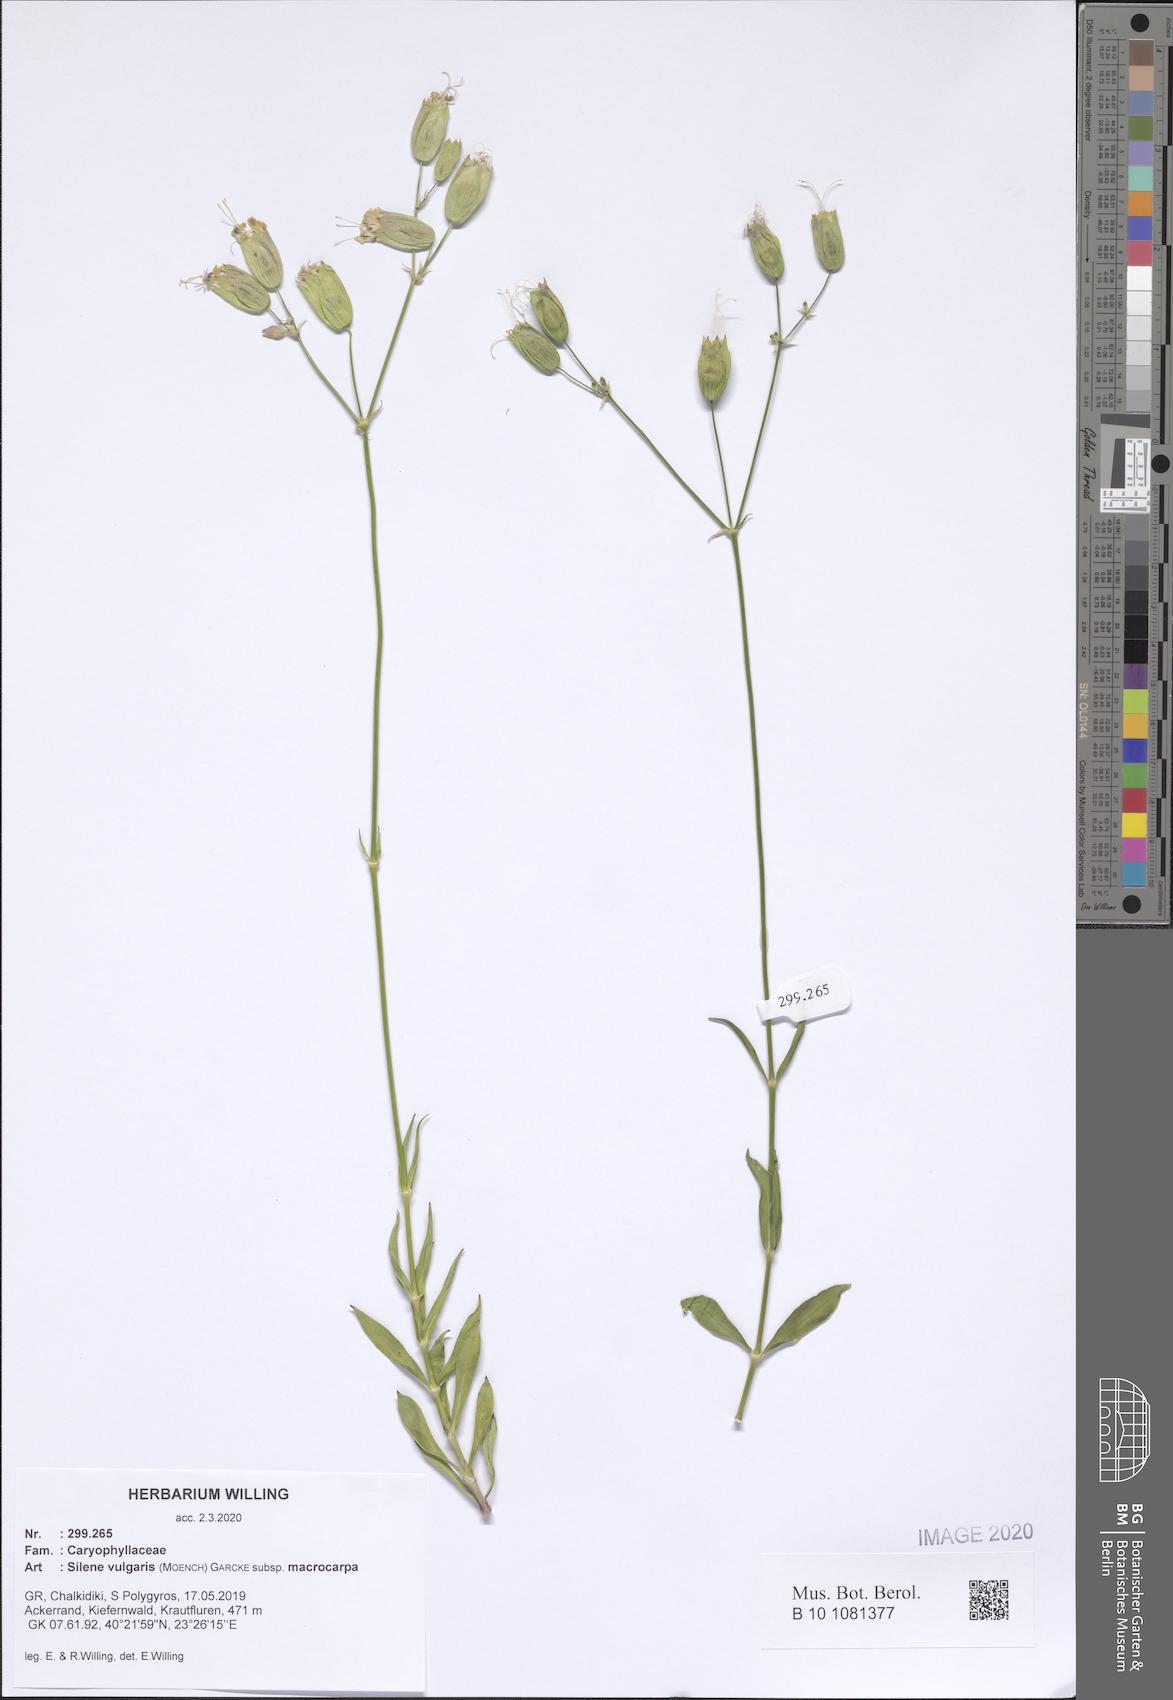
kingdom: Plantae
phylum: Tracheophyta
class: Magnoliopsida
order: Caryophyllales
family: Caryophyllaceae
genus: Silene
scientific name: Silene vulgaris
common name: Bladder campion
